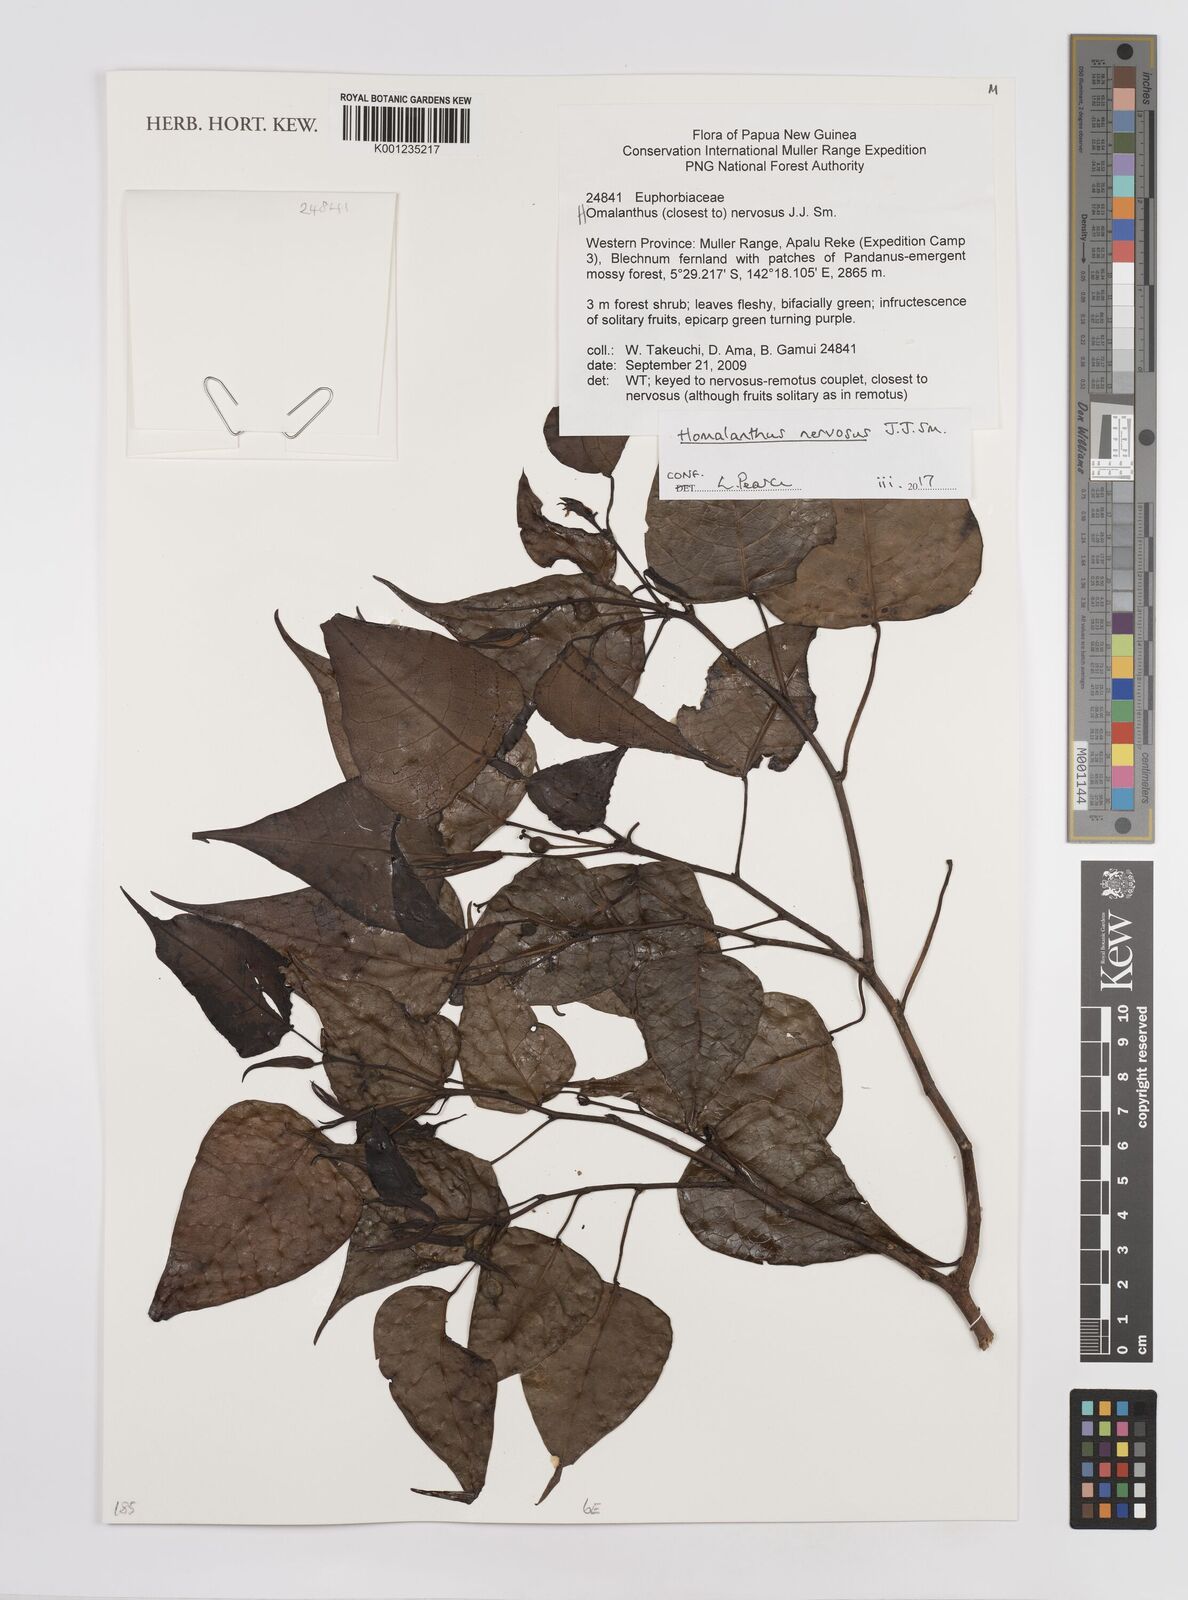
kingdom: Plantae
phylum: Tracheophyta
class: Magnoliopsida
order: Malpighiales
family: Euphorbiaceae
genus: Homalanthus
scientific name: Homalanthus nervosus
